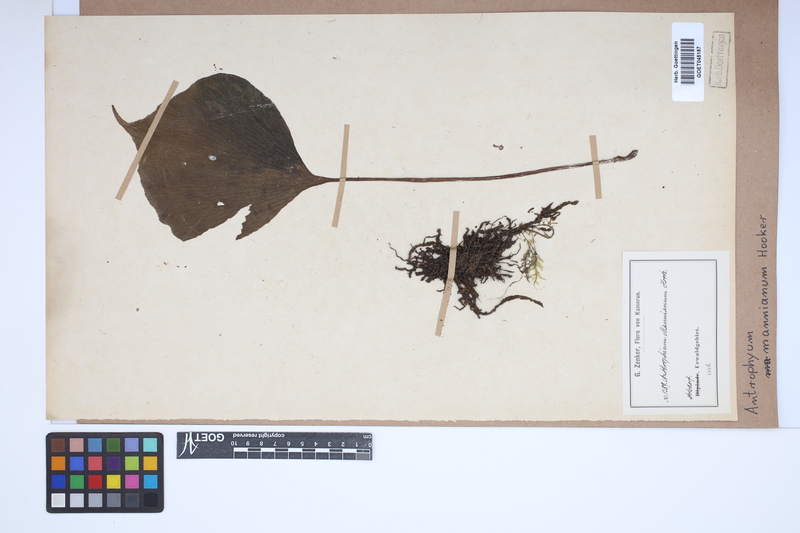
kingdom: Plantae
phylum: Tracheophyta
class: Polypodiopsida
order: Polypodiales
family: Pteridaceae
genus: Antrophyopsis
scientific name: Antrophyopsis manniana
